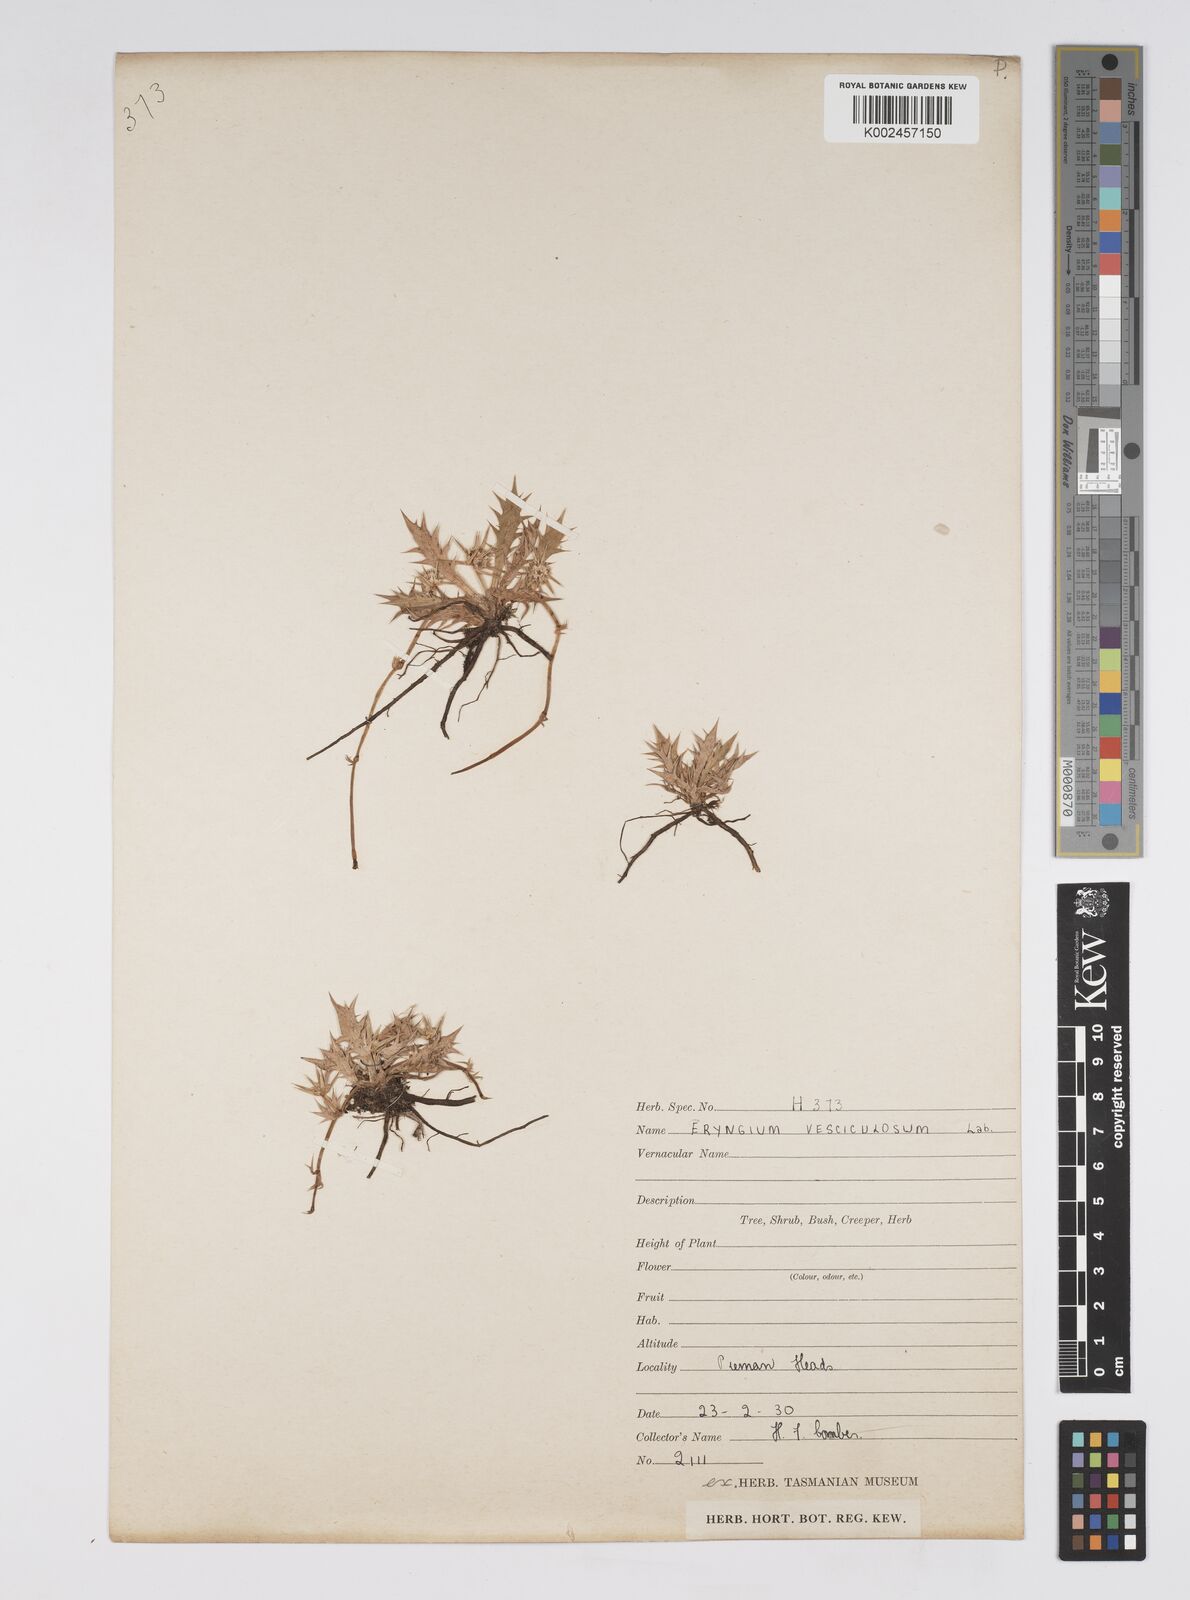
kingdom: Plantae
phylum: Tracheophyta
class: Magnoliopsida
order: Apiales
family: Apiaceae
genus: Eryngium
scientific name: Eryngium vesiculosum
